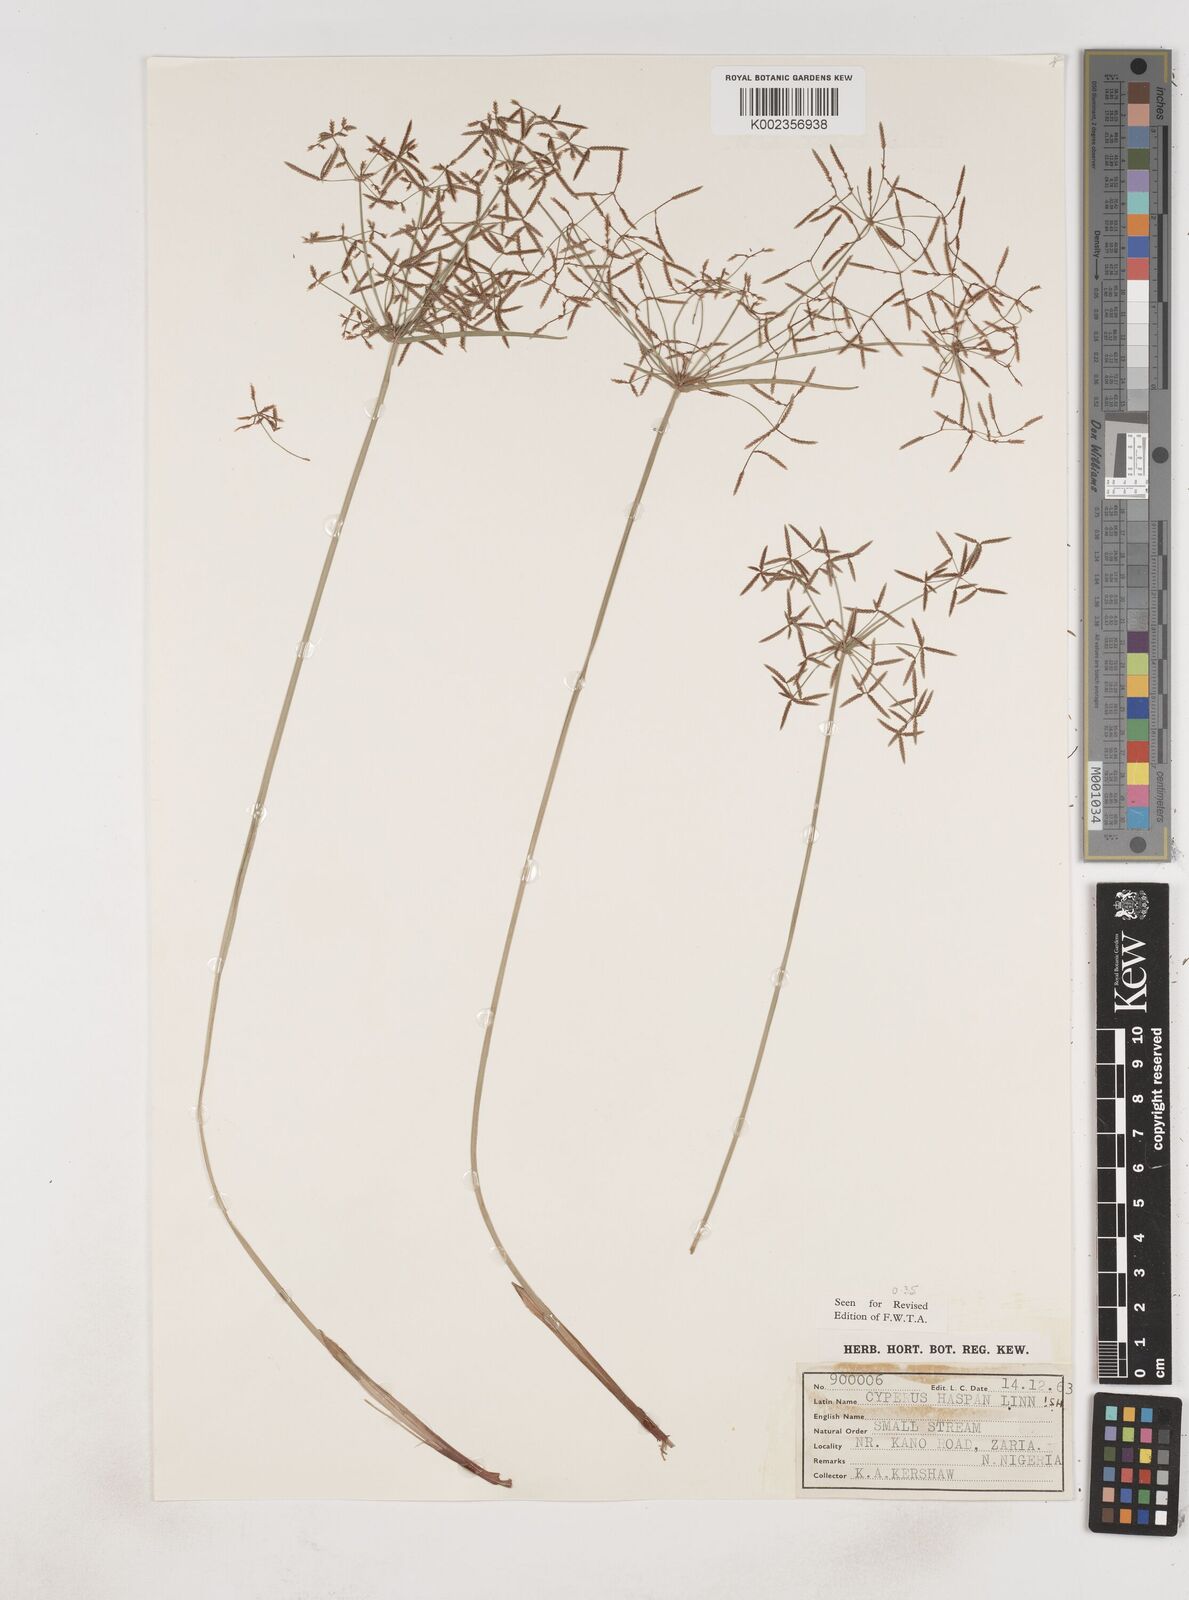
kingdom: Plantae
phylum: Tracheophyta
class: Liliopsida
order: Poales
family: Cyperaceae
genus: Cyperus
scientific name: Cyperus haspan
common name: Haspan flatsedge
